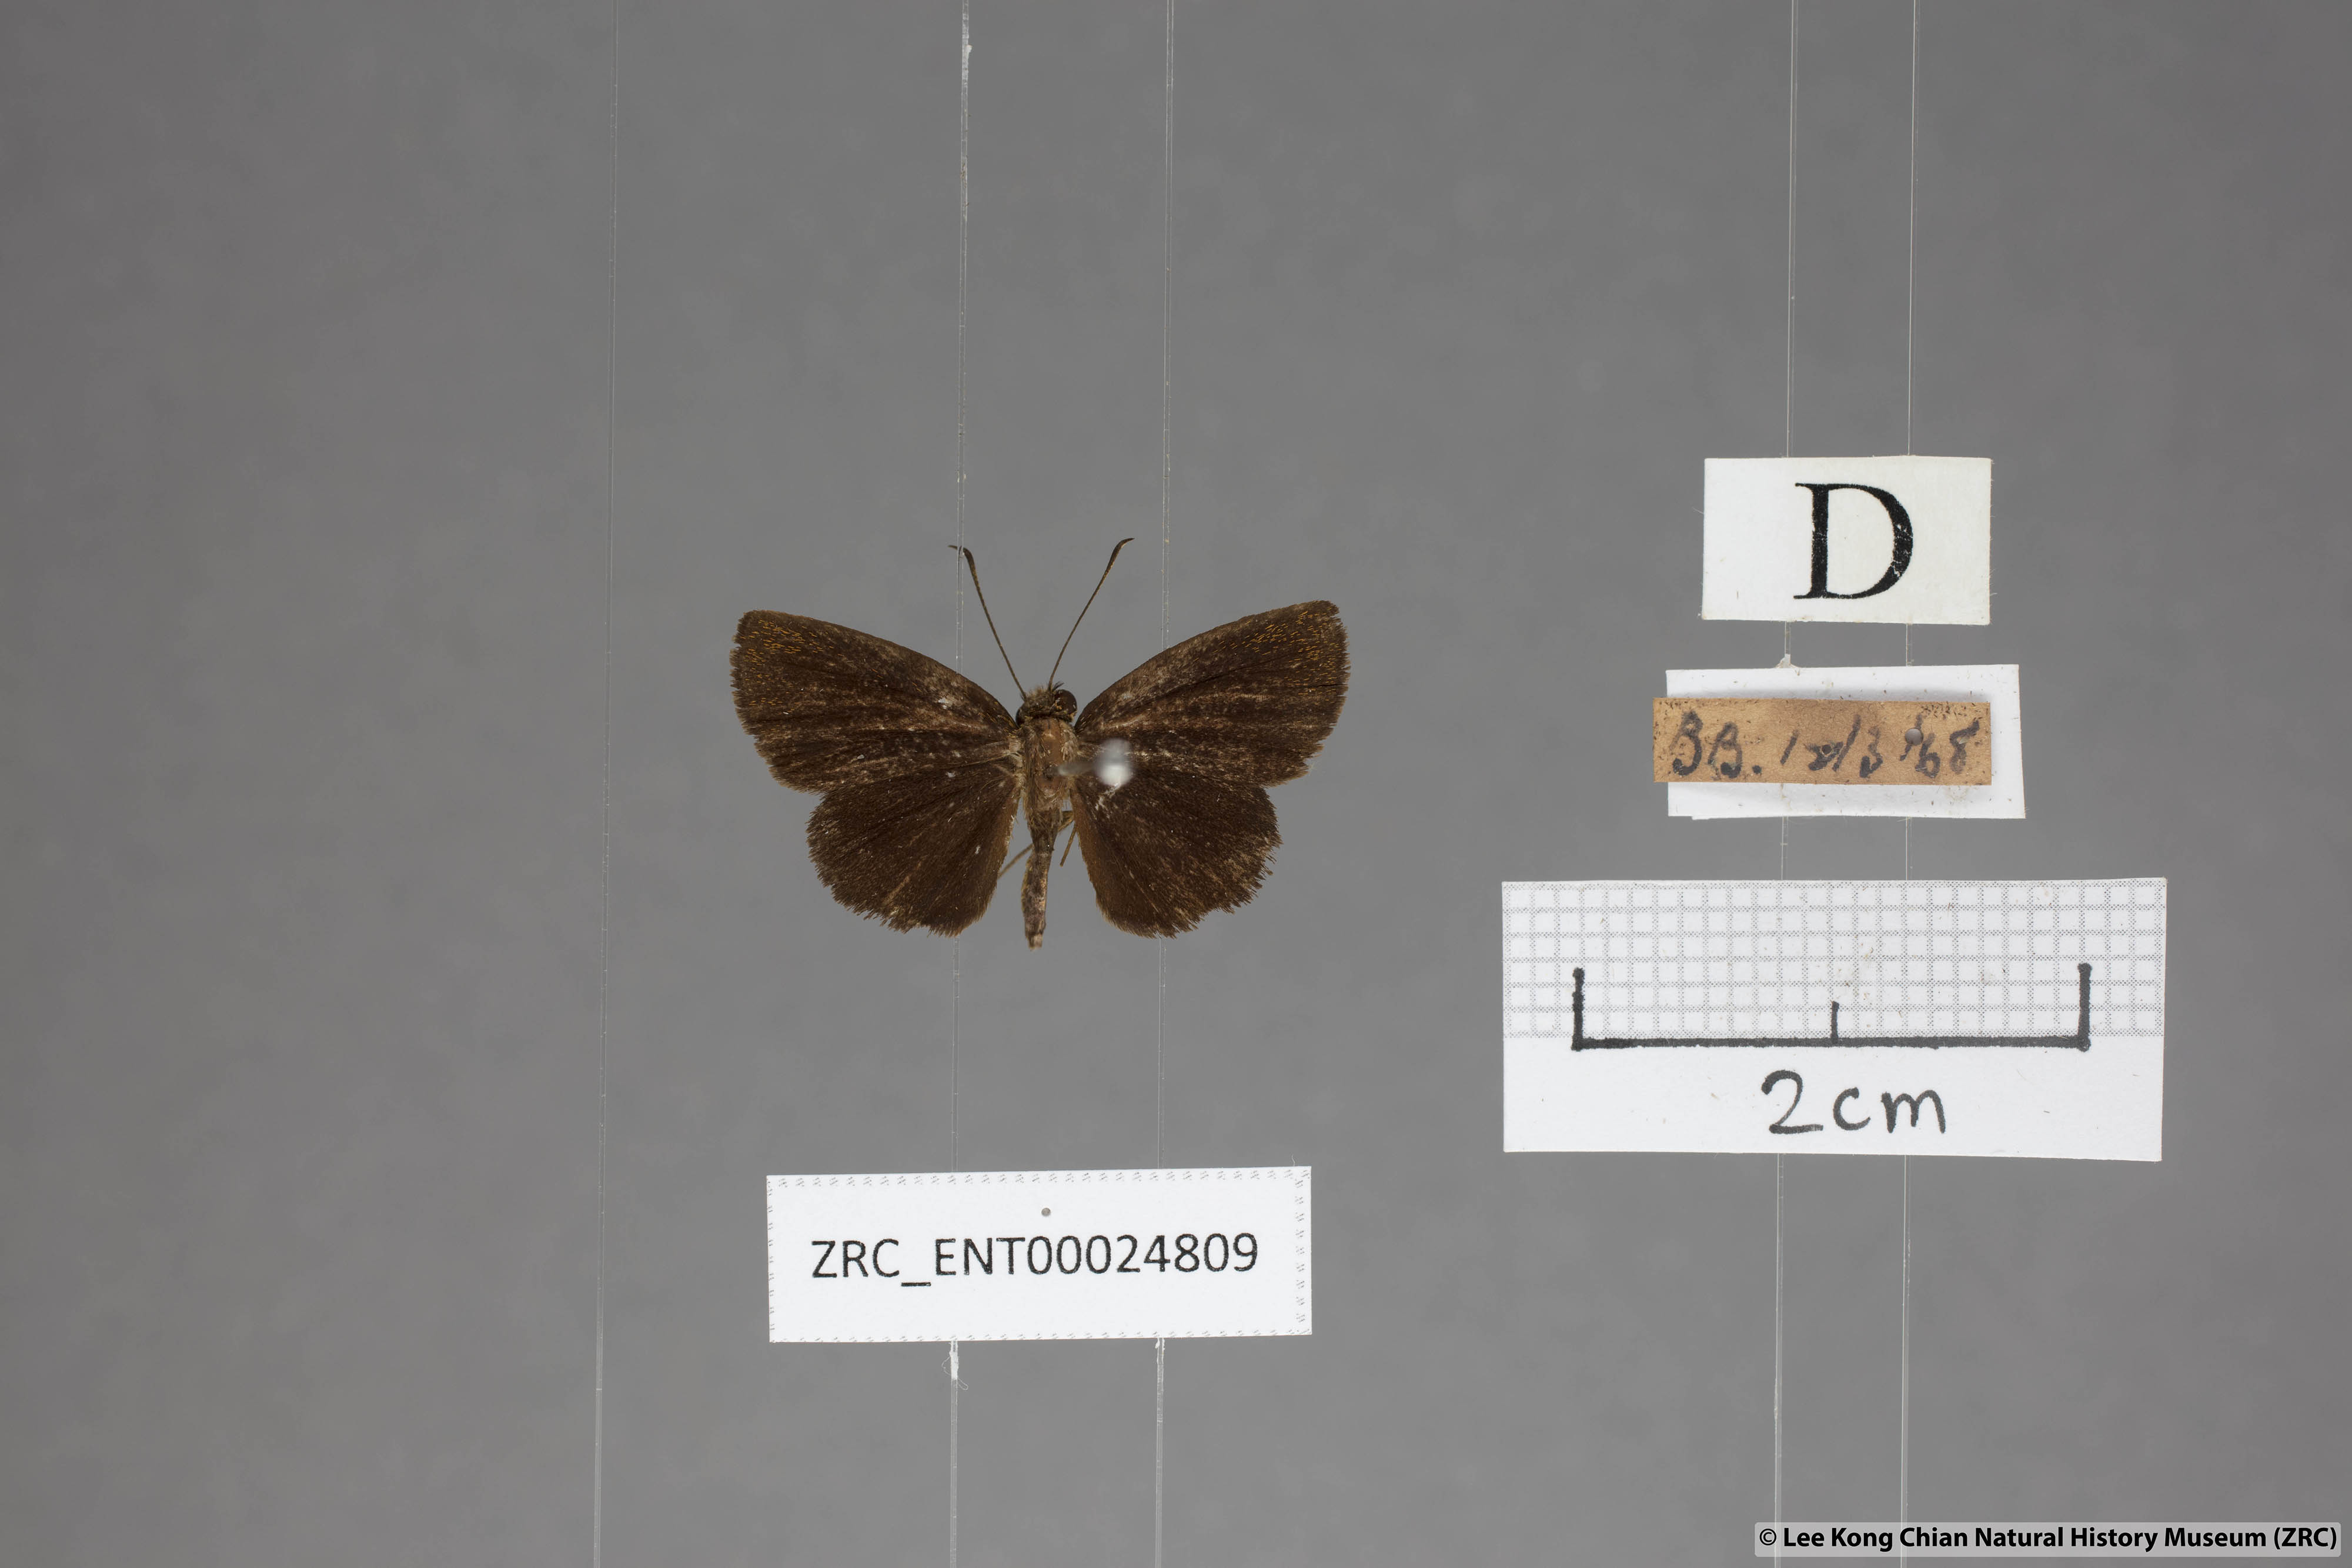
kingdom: Animalia
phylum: Arthropoda
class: Insecta
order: Lepidoptera
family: Hesperiidae
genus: Iambrix
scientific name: Iambrix salsala
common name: Chestnut bob
